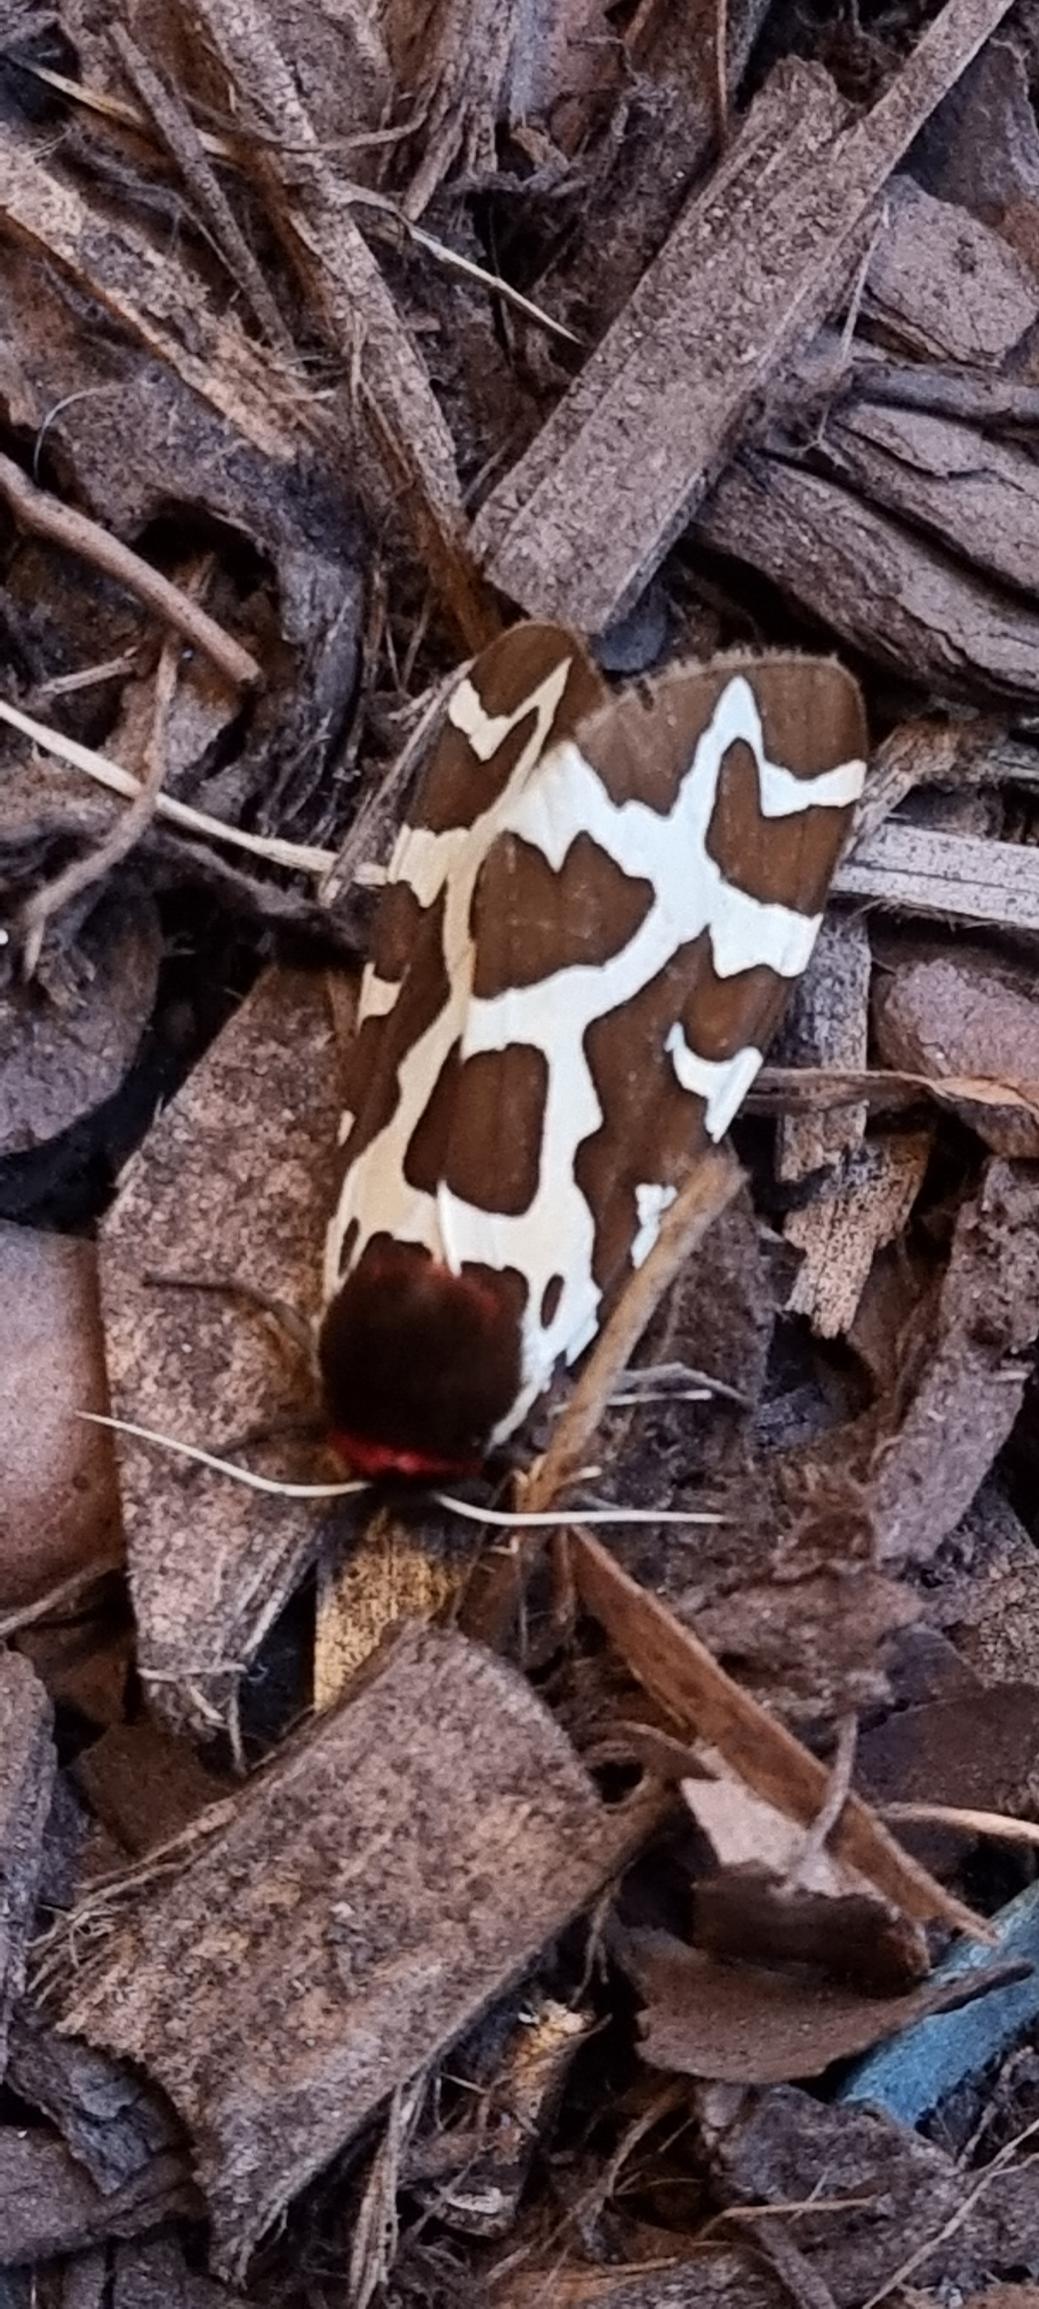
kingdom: Animalia
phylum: Arthropoda
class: Insecta
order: Lepidoptera
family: Erebidae
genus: Arctia
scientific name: Arctia caja
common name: Brun bjørn
